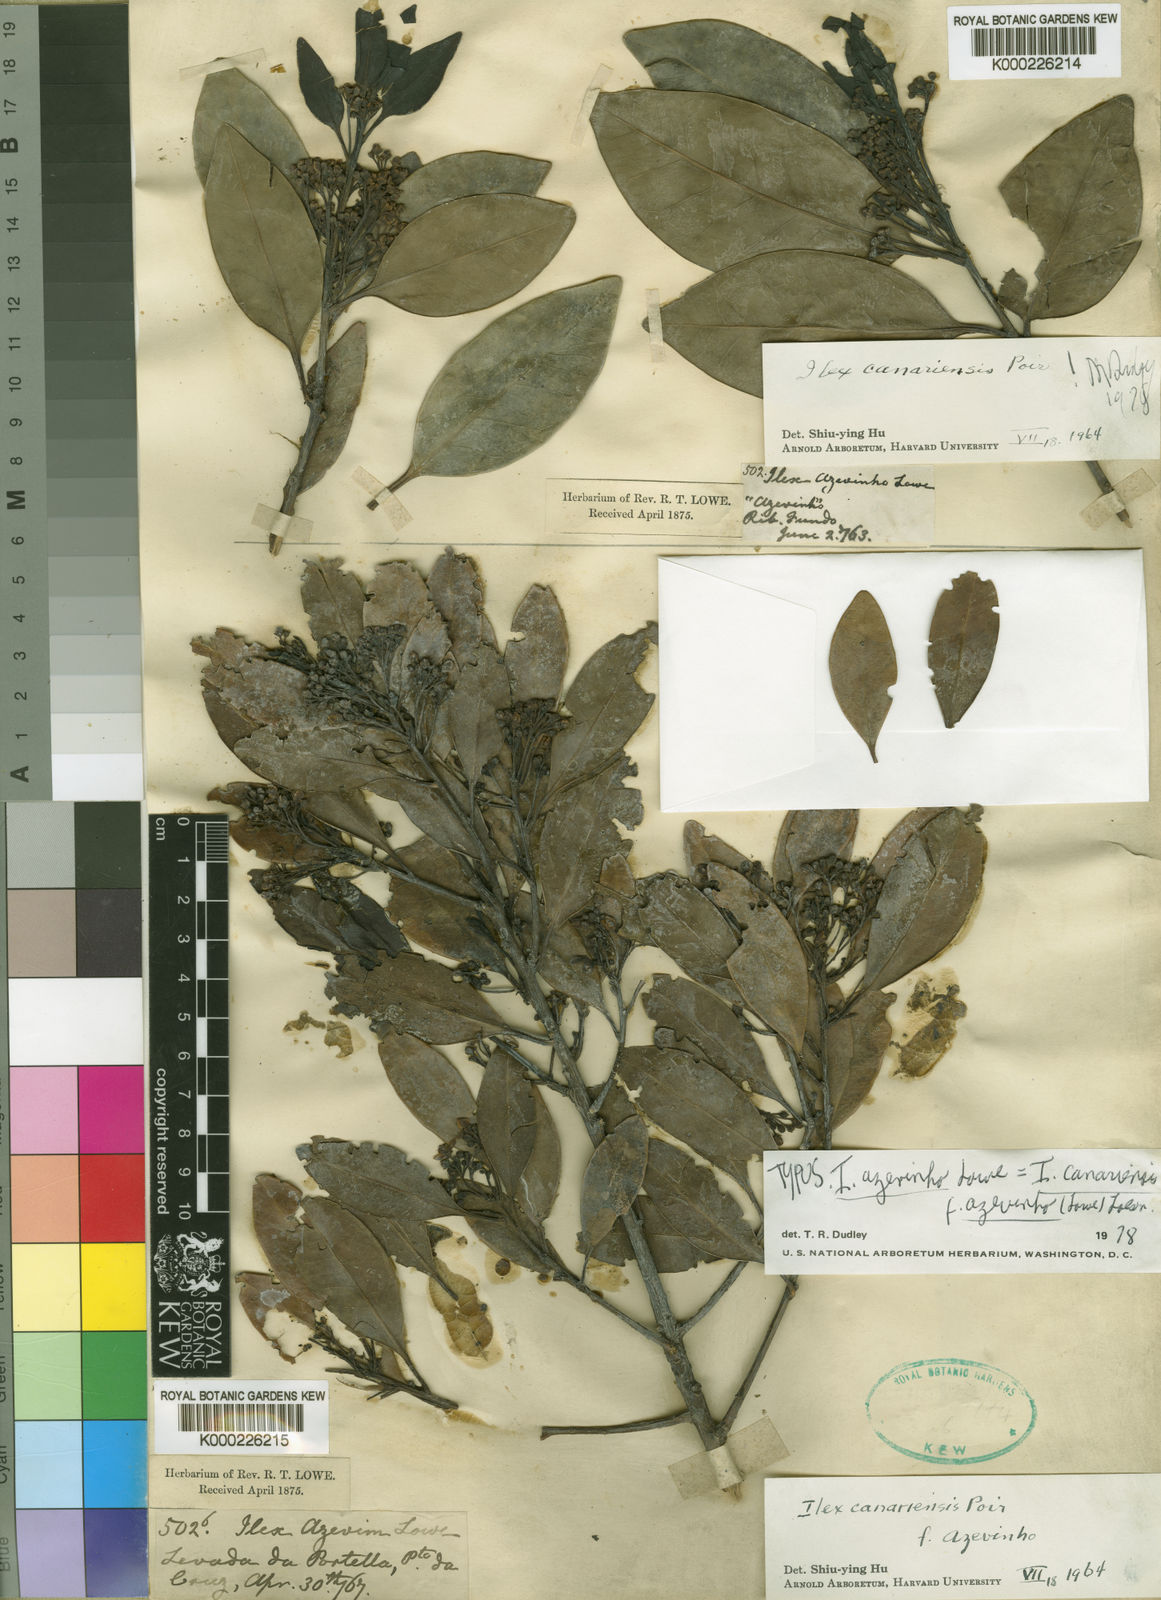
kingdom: Plantae
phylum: Tracheophyta
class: Magnoliopsida
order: Aquifoliales
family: Aquifoliaceae
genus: Ilex
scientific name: Ilex canariensis
